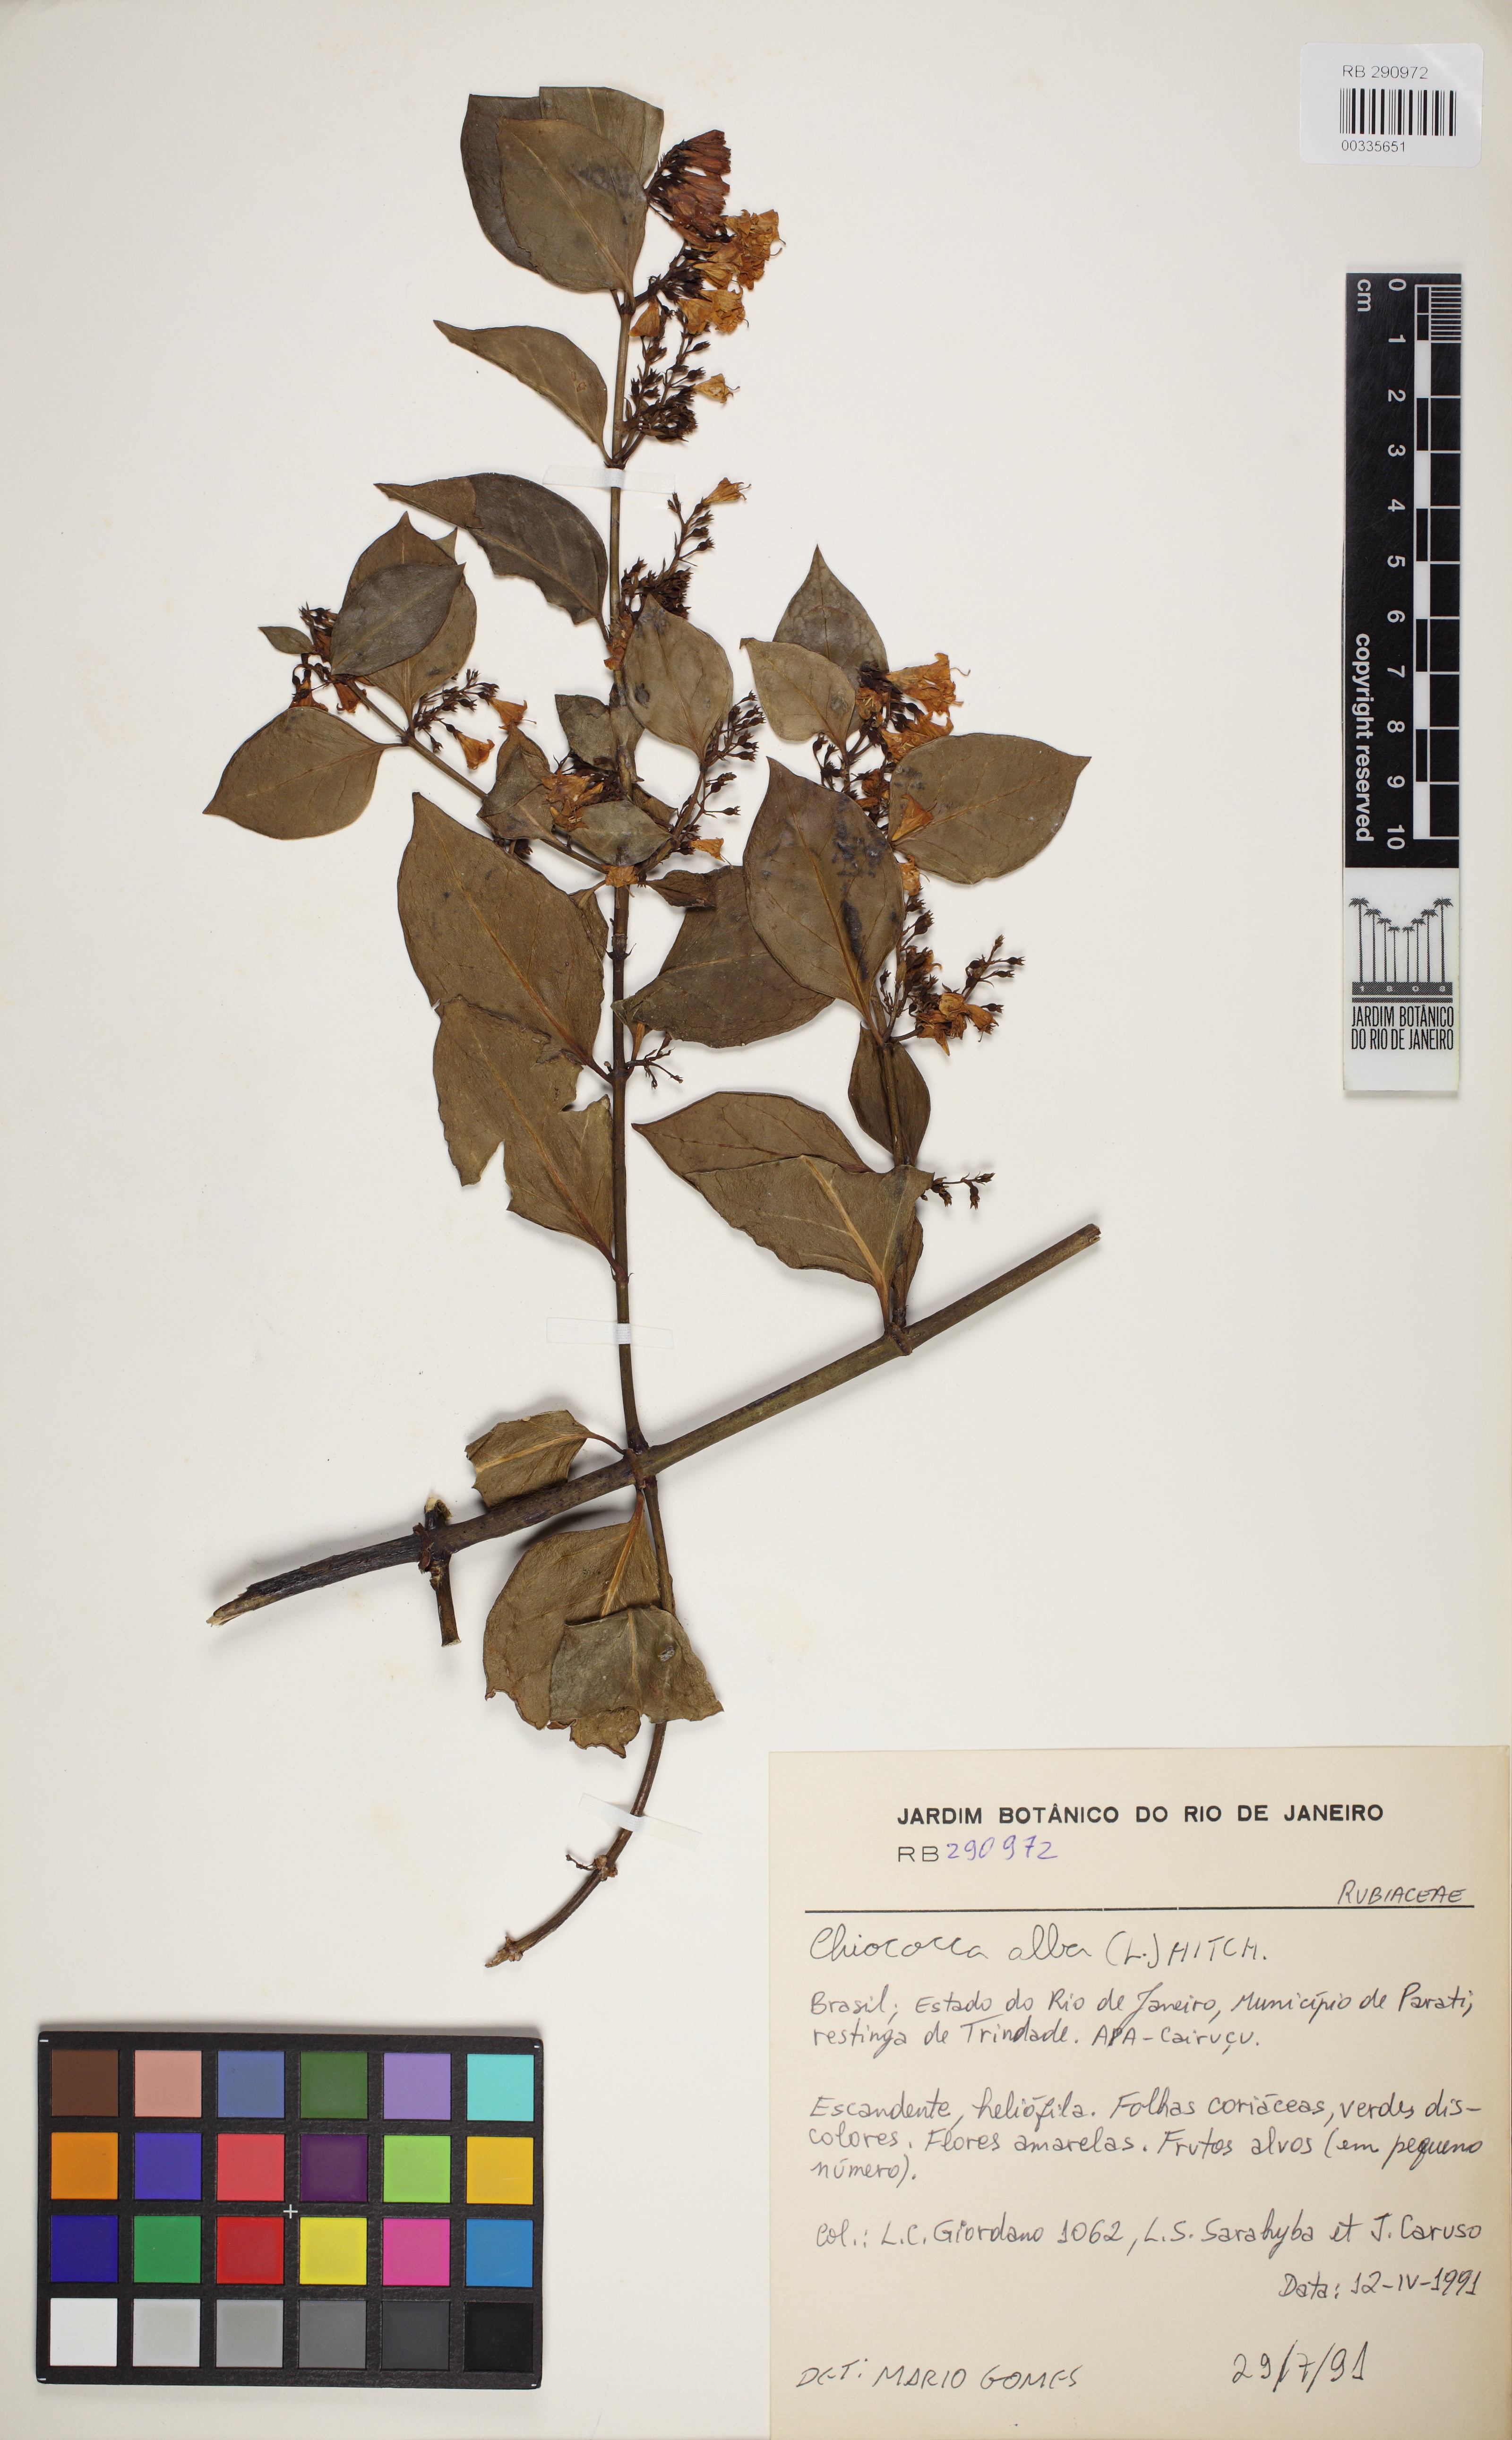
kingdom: Plantae
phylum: Tracheophyta
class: Magnoliopsida
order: Gentianales
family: Rubiaceae
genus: Chiococca
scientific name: Chiococca alba
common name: Snowberry
